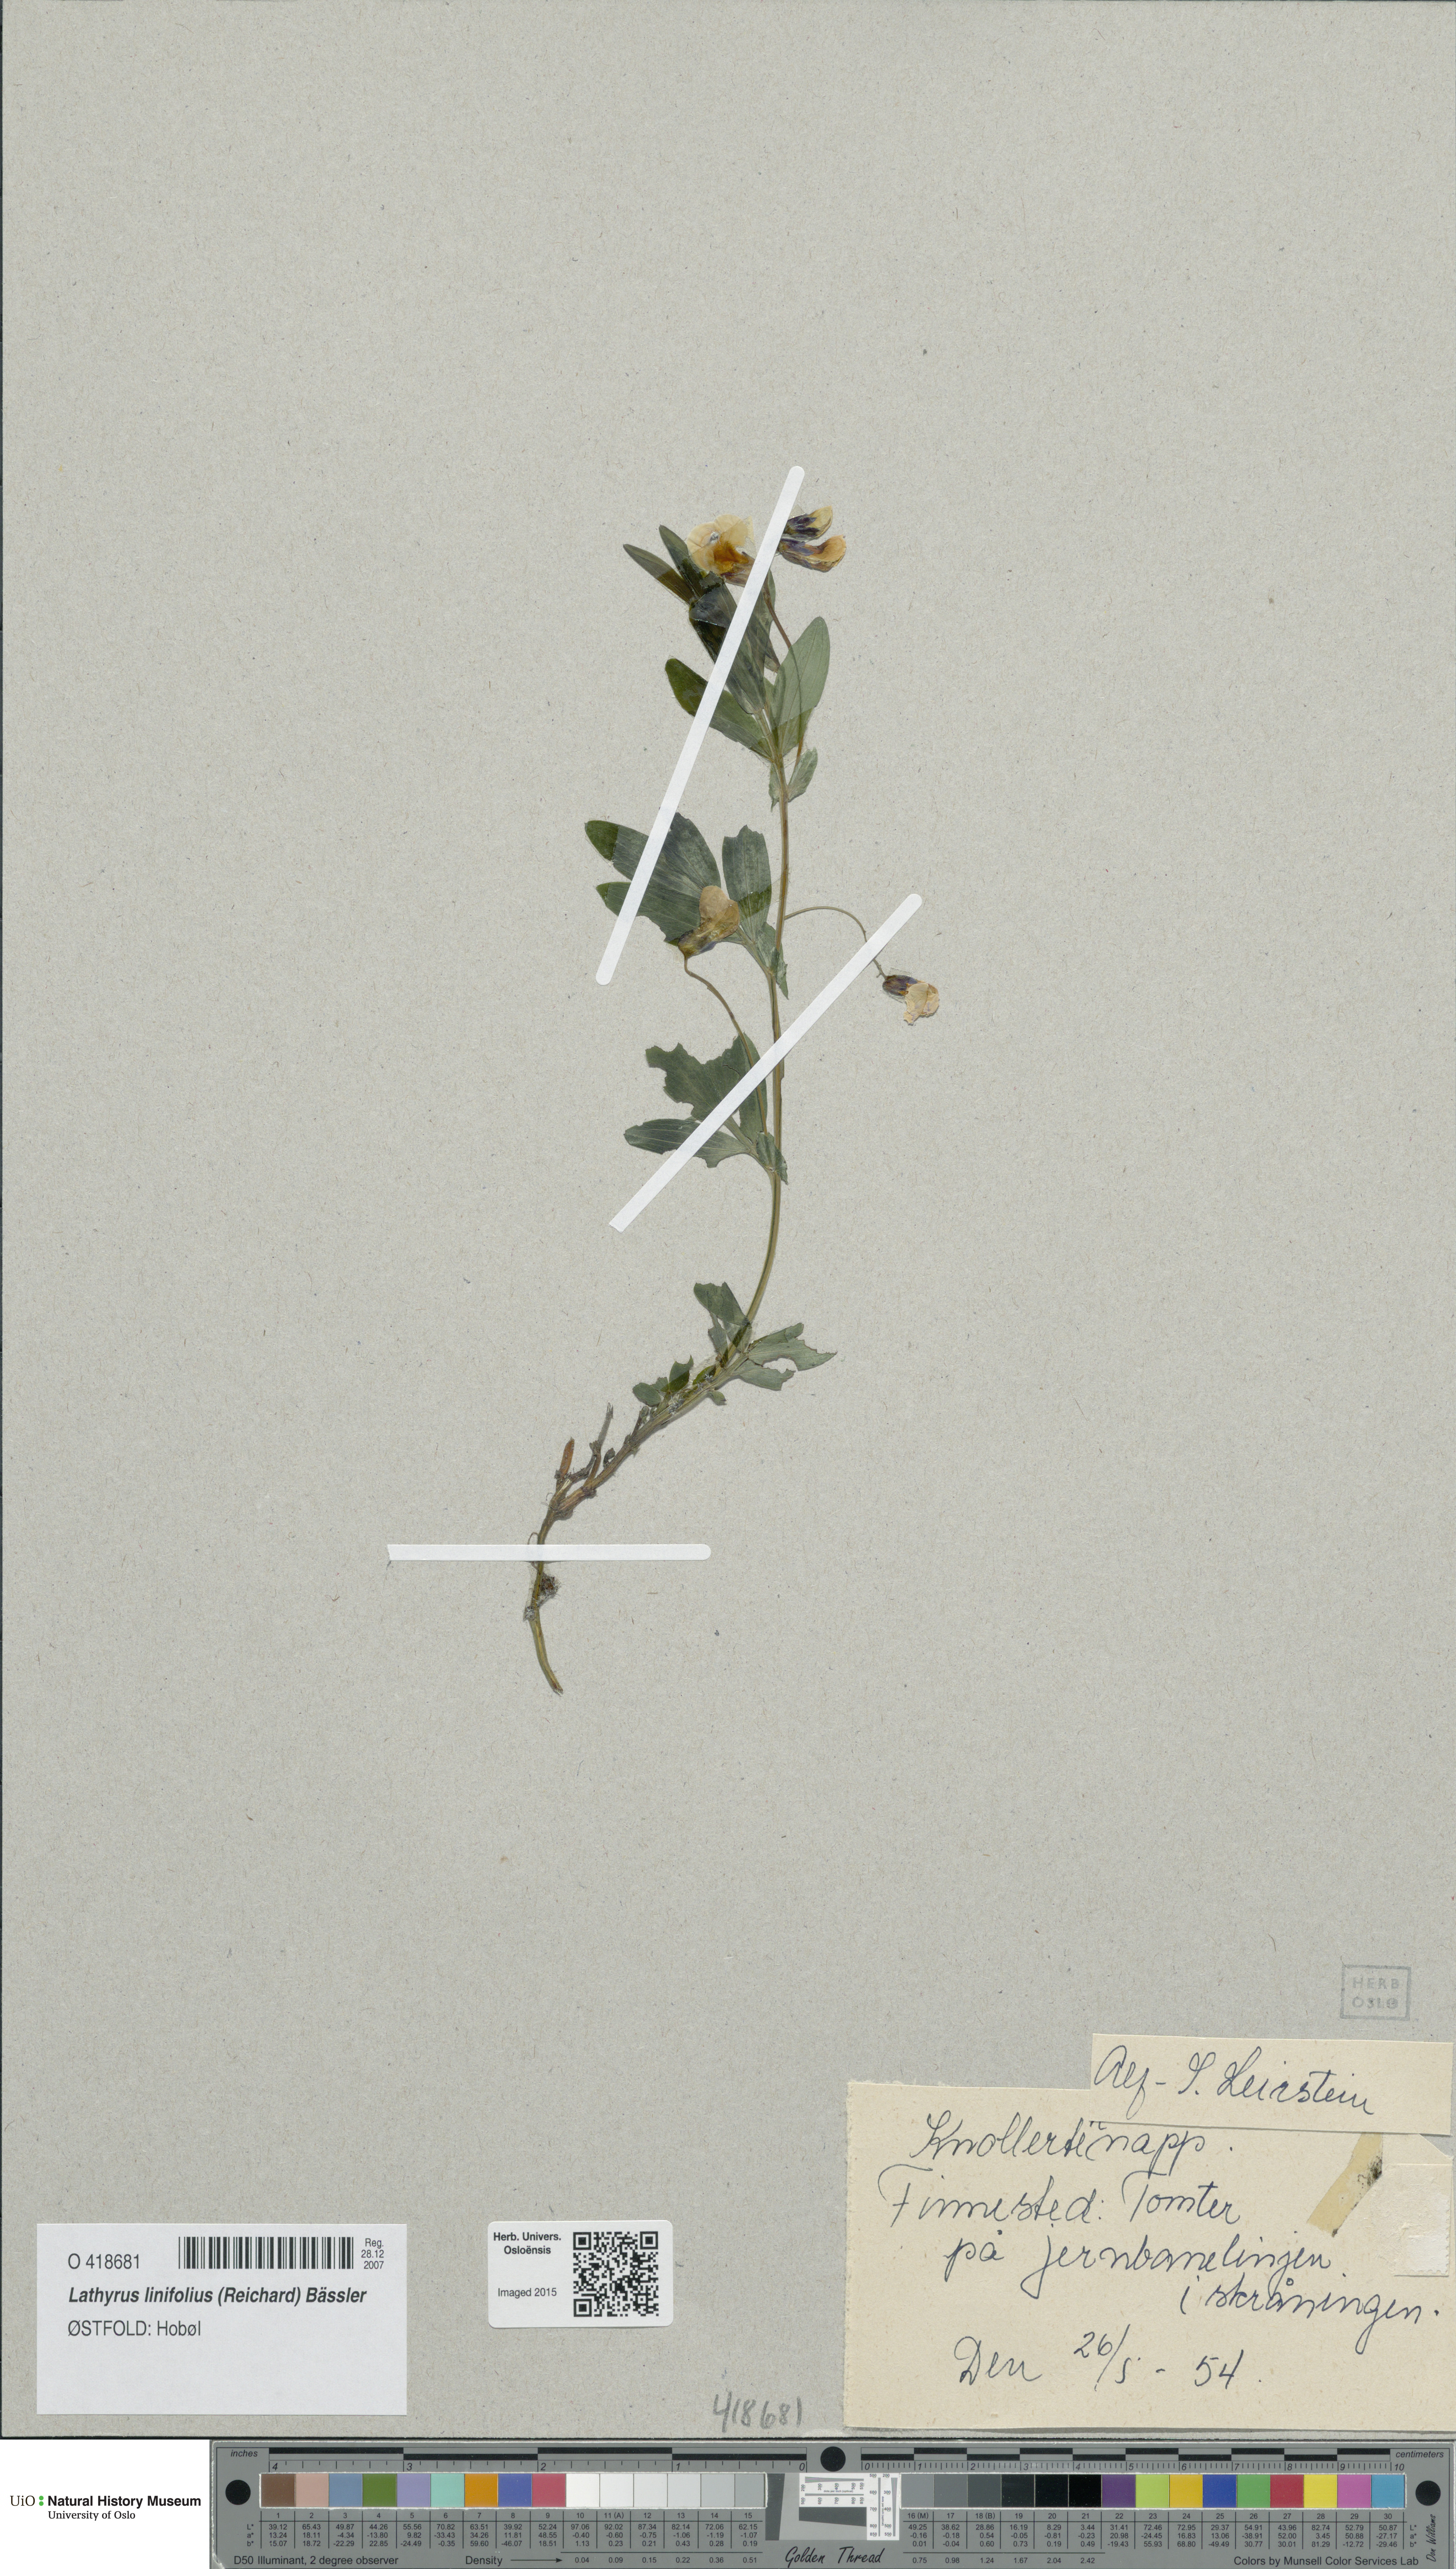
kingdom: Plantae
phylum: Tracheophyta
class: Magnoliopsida
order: Fabales
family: Fabaceae
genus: Lathyrus
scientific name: Lathyrus linifolius
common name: Bitter-vetch
